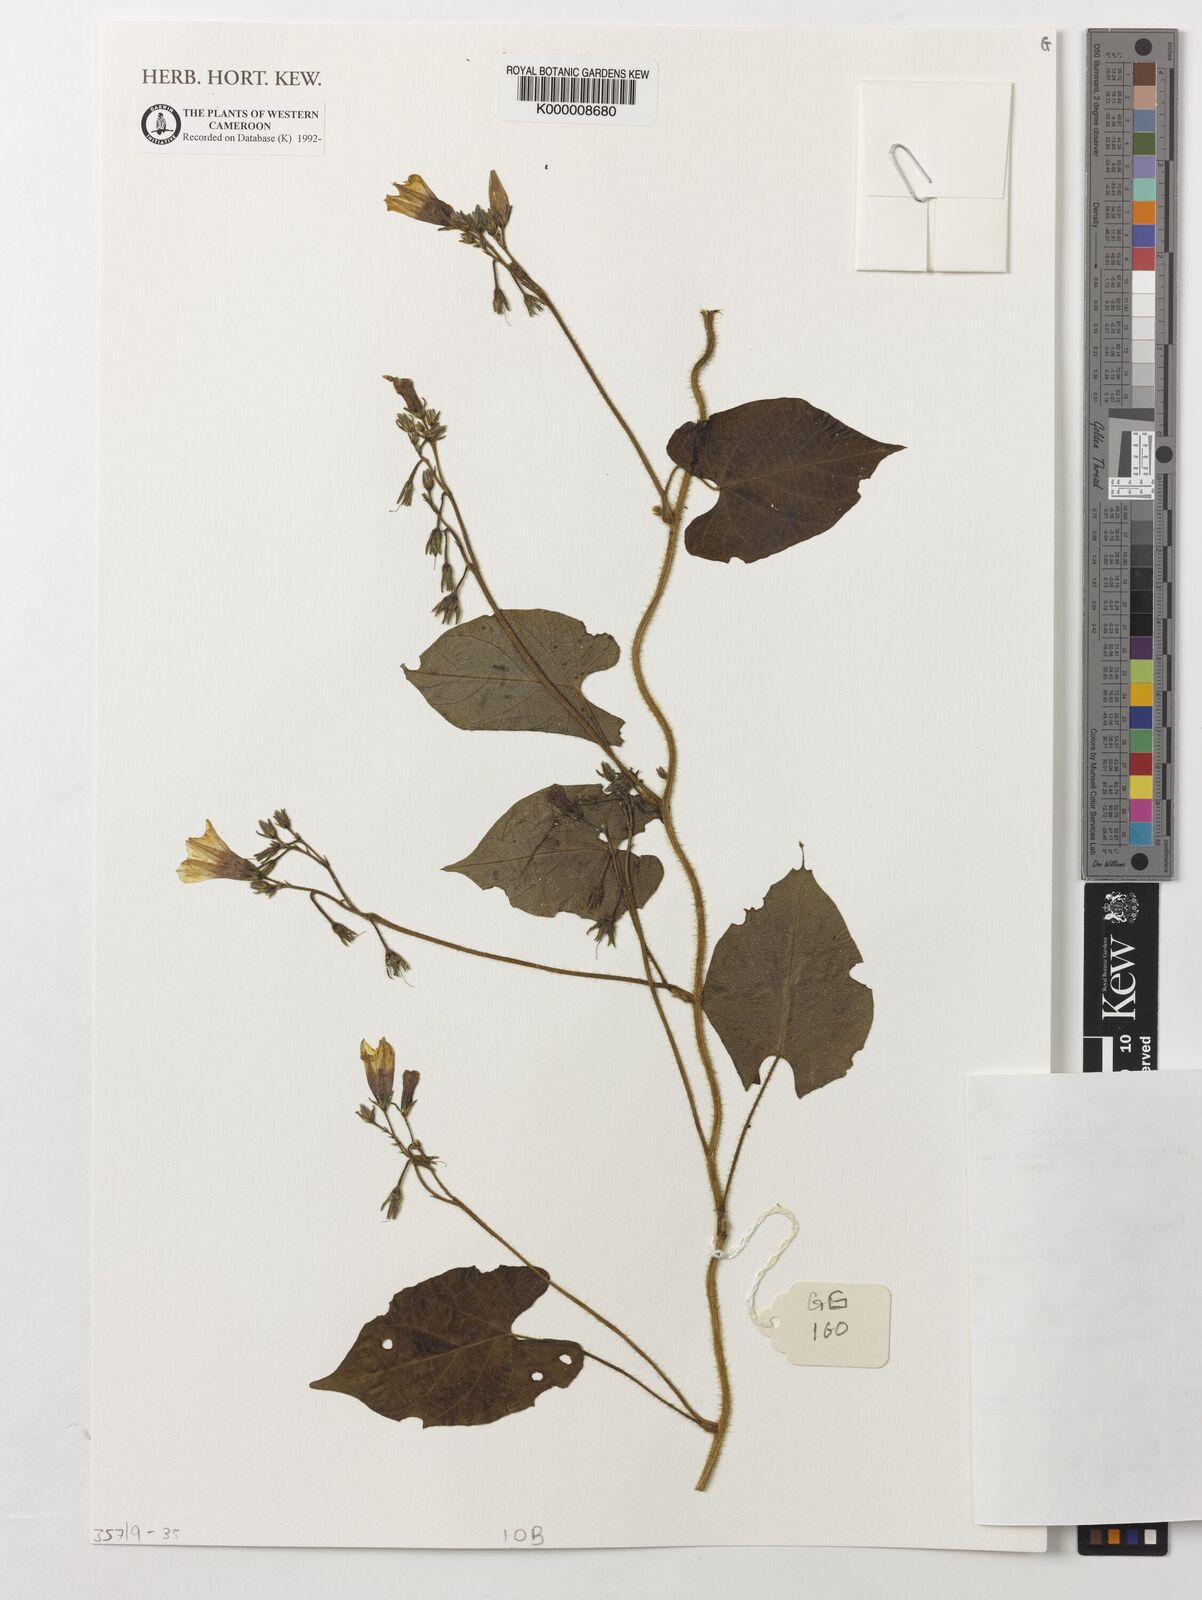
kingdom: Plantae
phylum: Tracheophyta
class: Magnoliopsida
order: Solanales
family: Convolvulaceae
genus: Ipomoea
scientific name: Ipomoea tenuirostris
